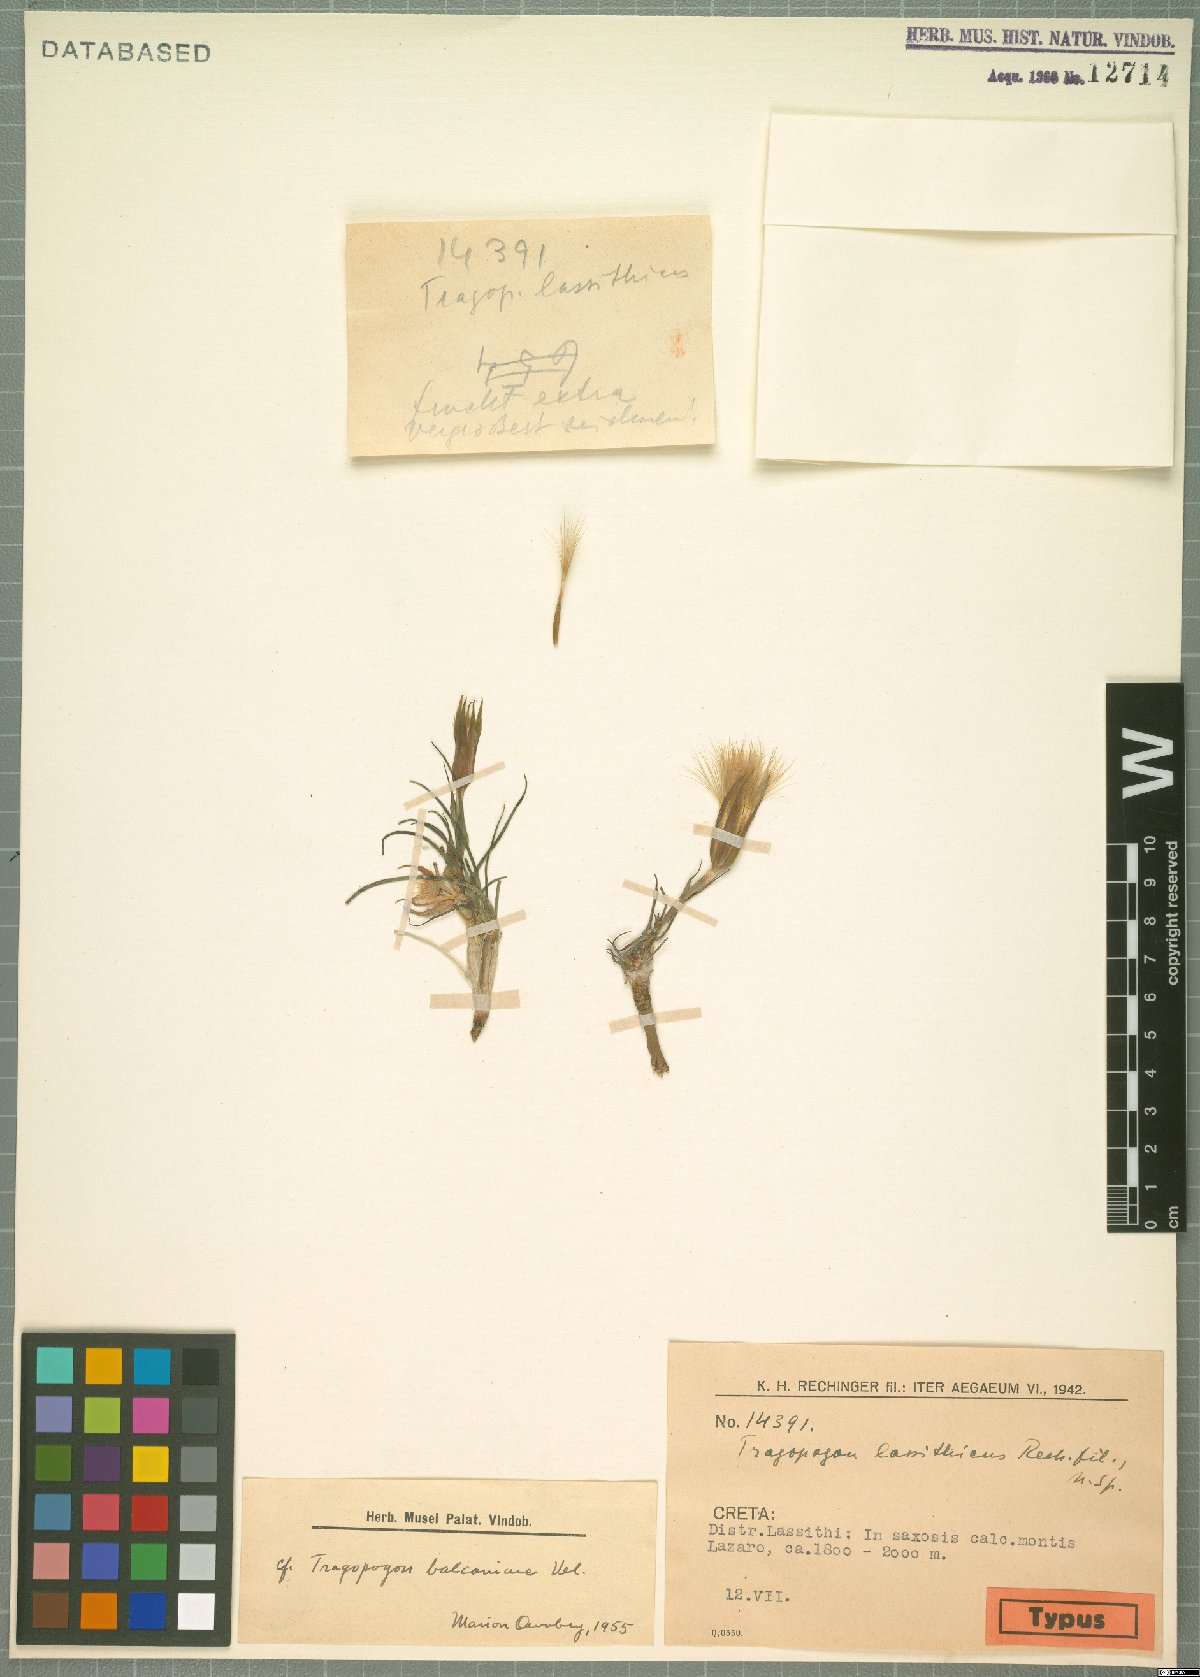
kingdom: Plantae
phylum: Tracheophyta
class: Magnoliopsida
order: Asterales
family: Asteraceae
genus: Tragopogon
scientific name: Tragopogon balcanicus
